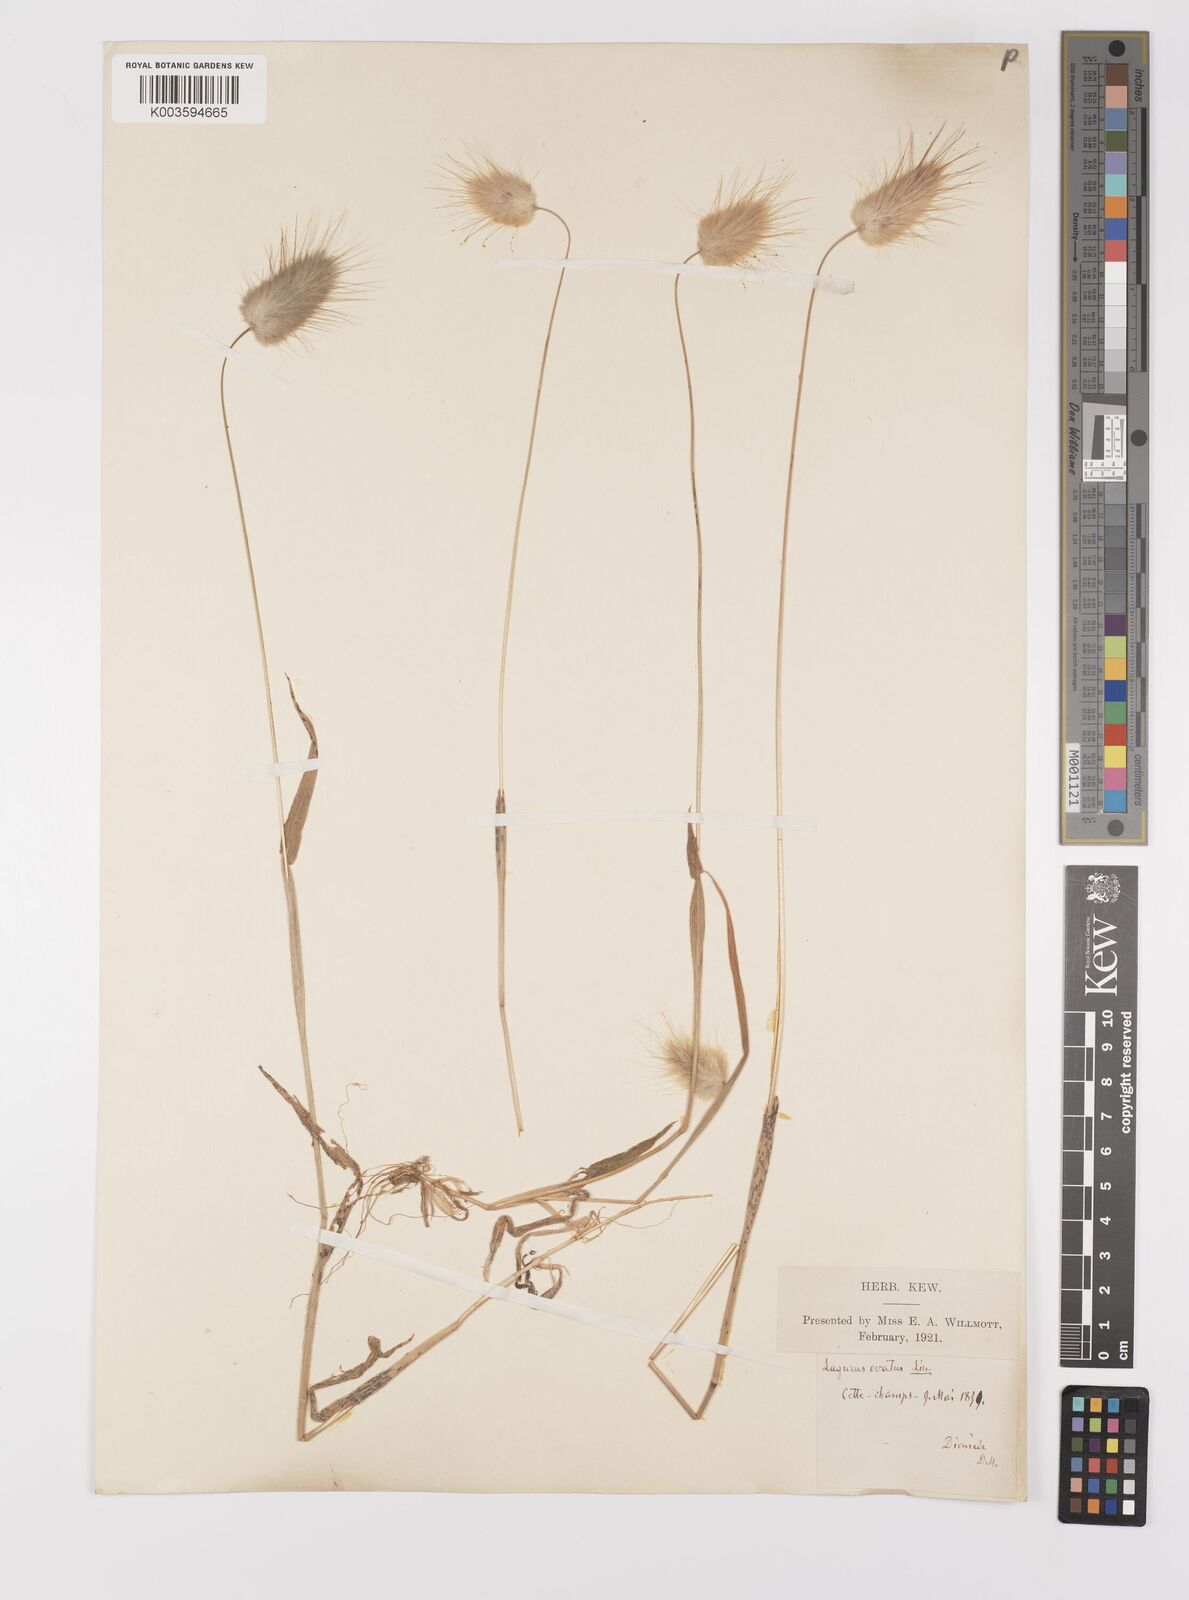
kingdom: Plantae
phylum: Tracheophyta
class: Liliopsida
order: Poales
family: Poaceae
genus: Lagurus
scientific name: Lagurus ovatus
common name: Hare's-tail
